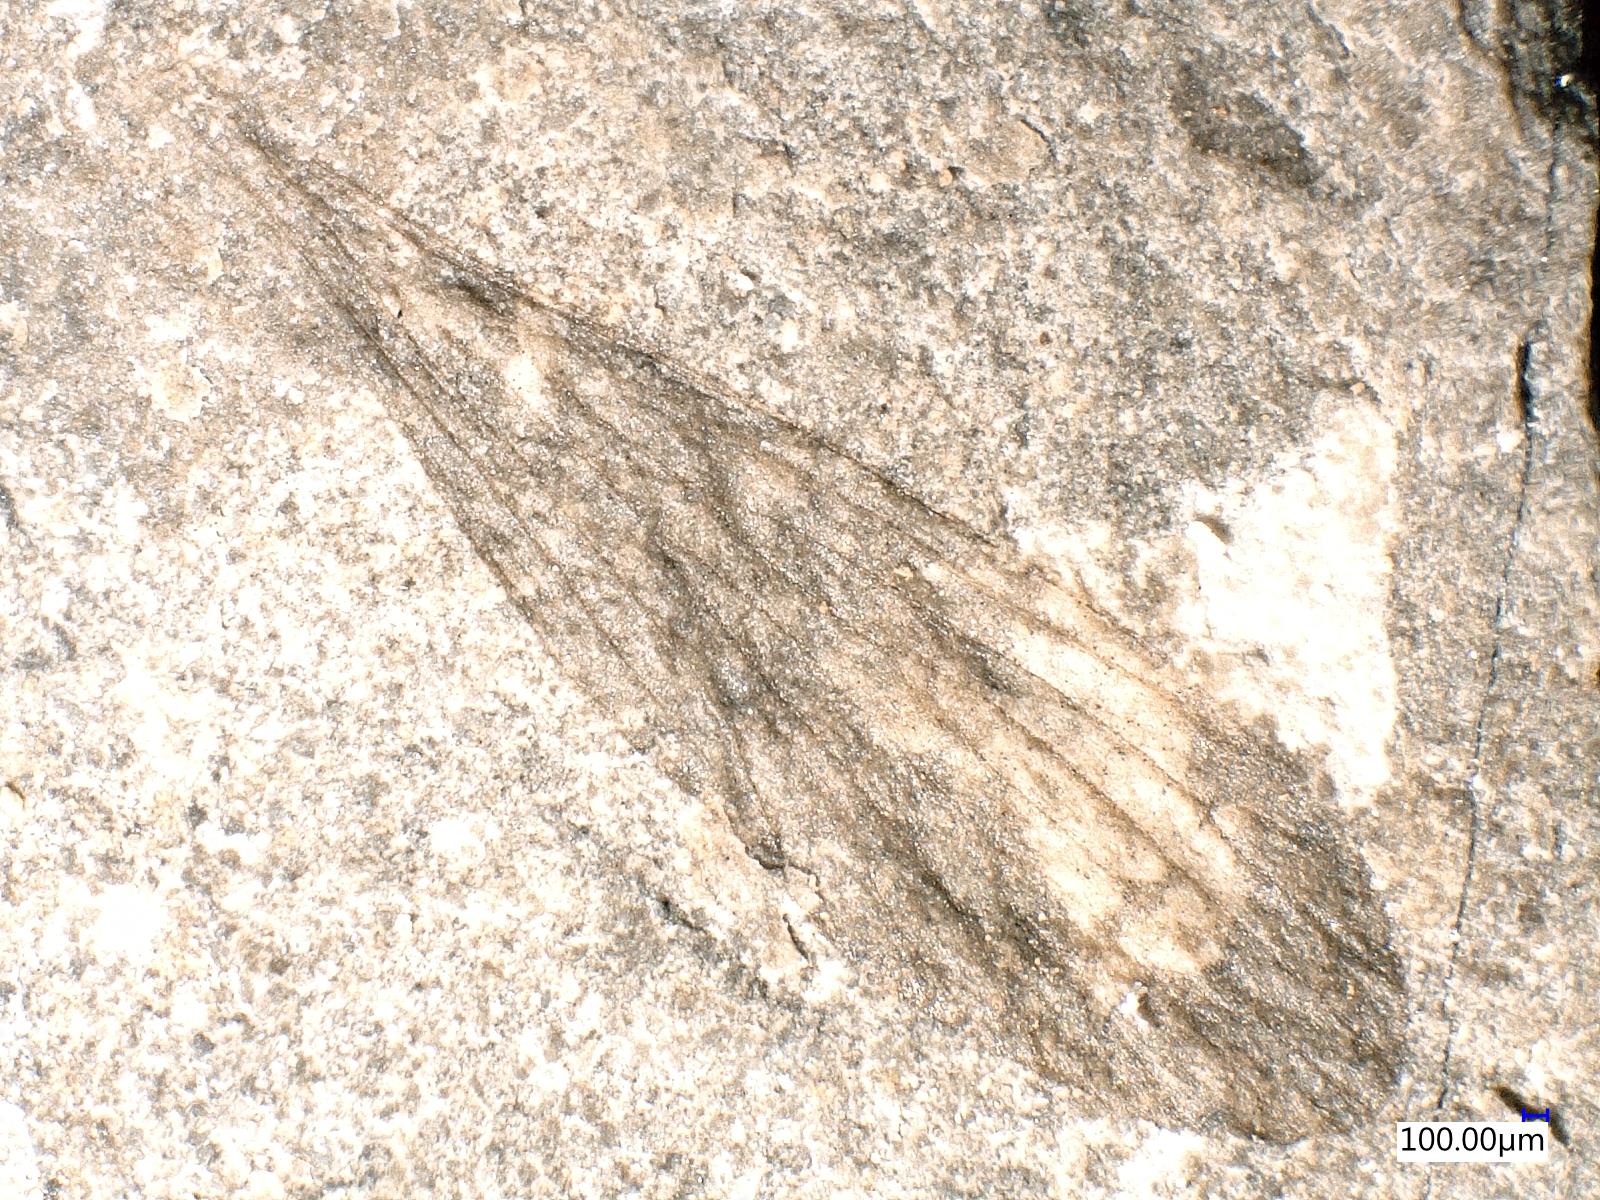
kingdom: Animalia
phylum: Arthropoda
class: Insecta
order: Mecoptera
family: Neorthophlebiidae
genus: Parabittacus
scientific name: Parabittacus
